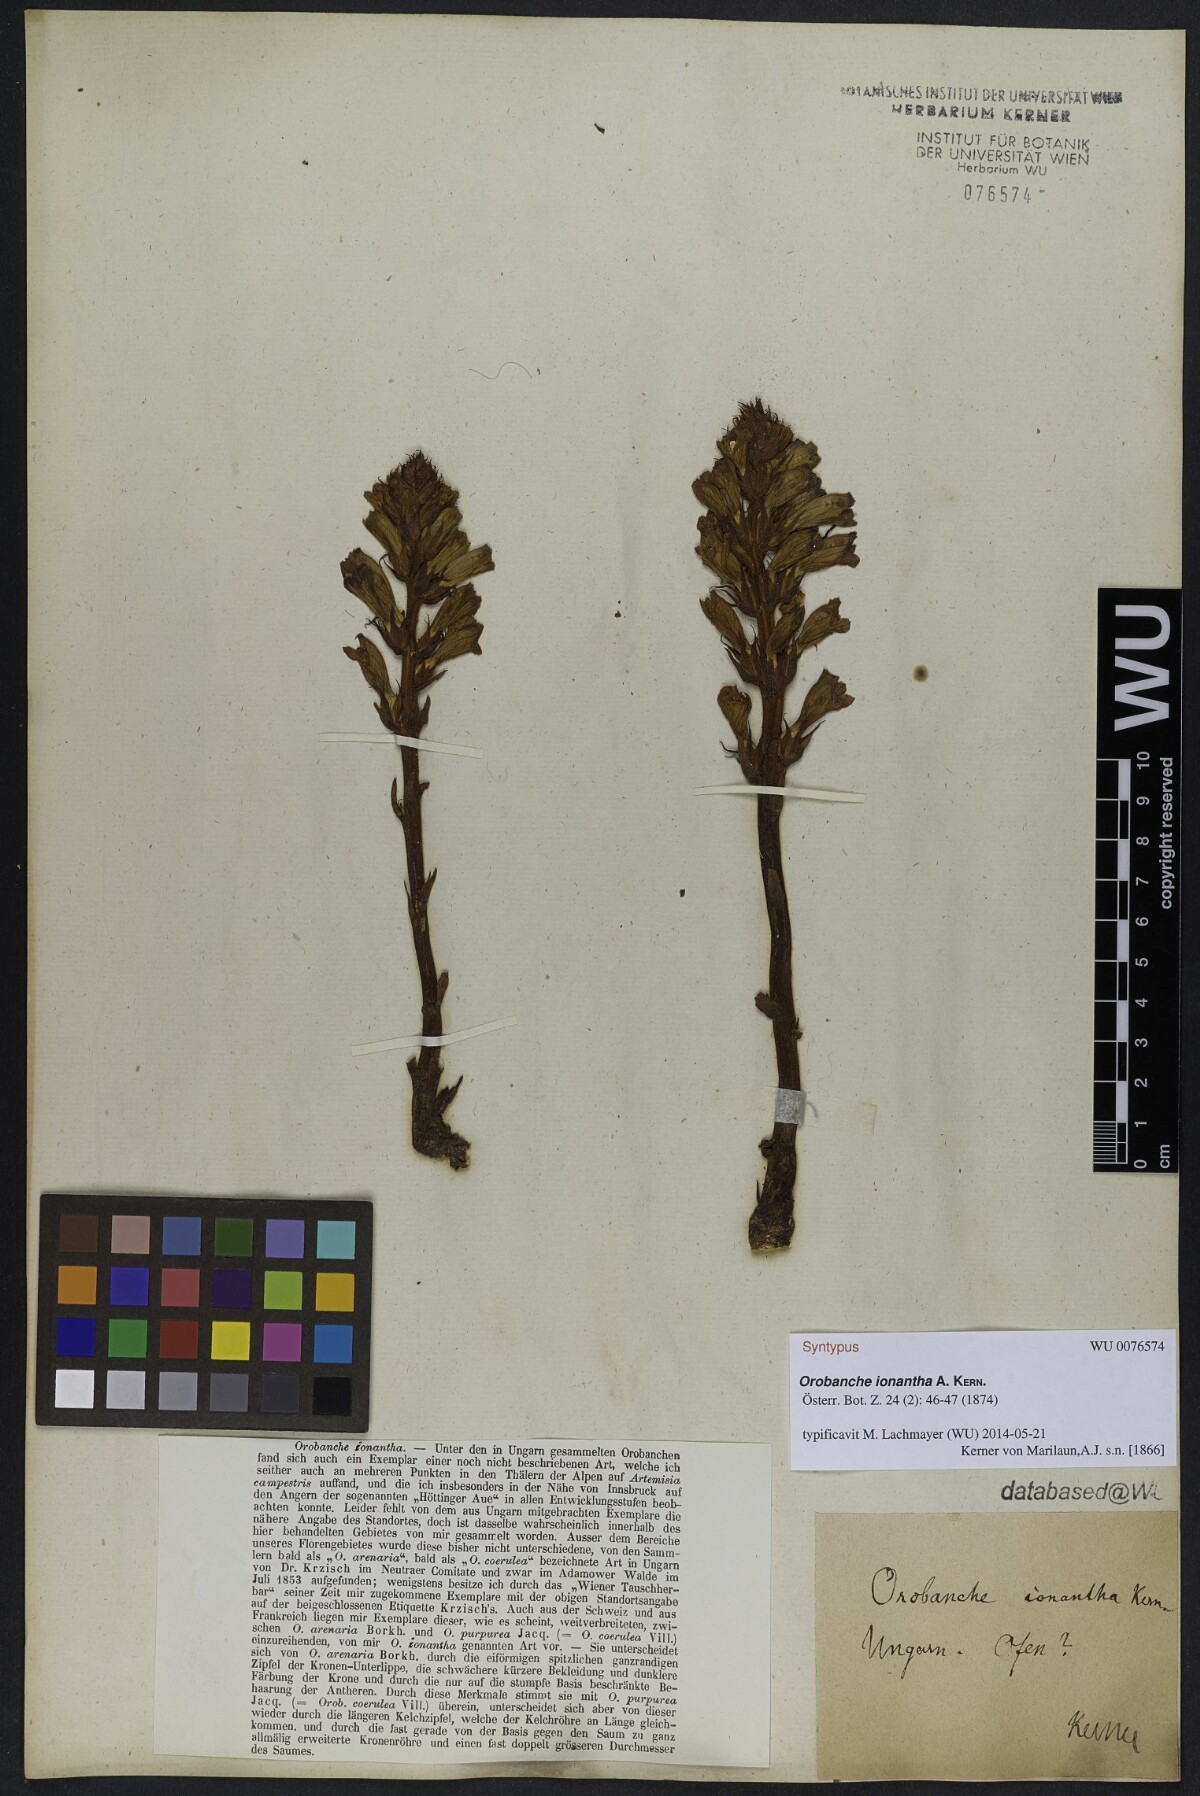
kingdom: Plantae
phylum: Tracheophyta
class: Magnoliopsida
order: Lamiales
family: Orobanchaceae
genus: Phelipanche
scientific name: Phelipanche arenaria
